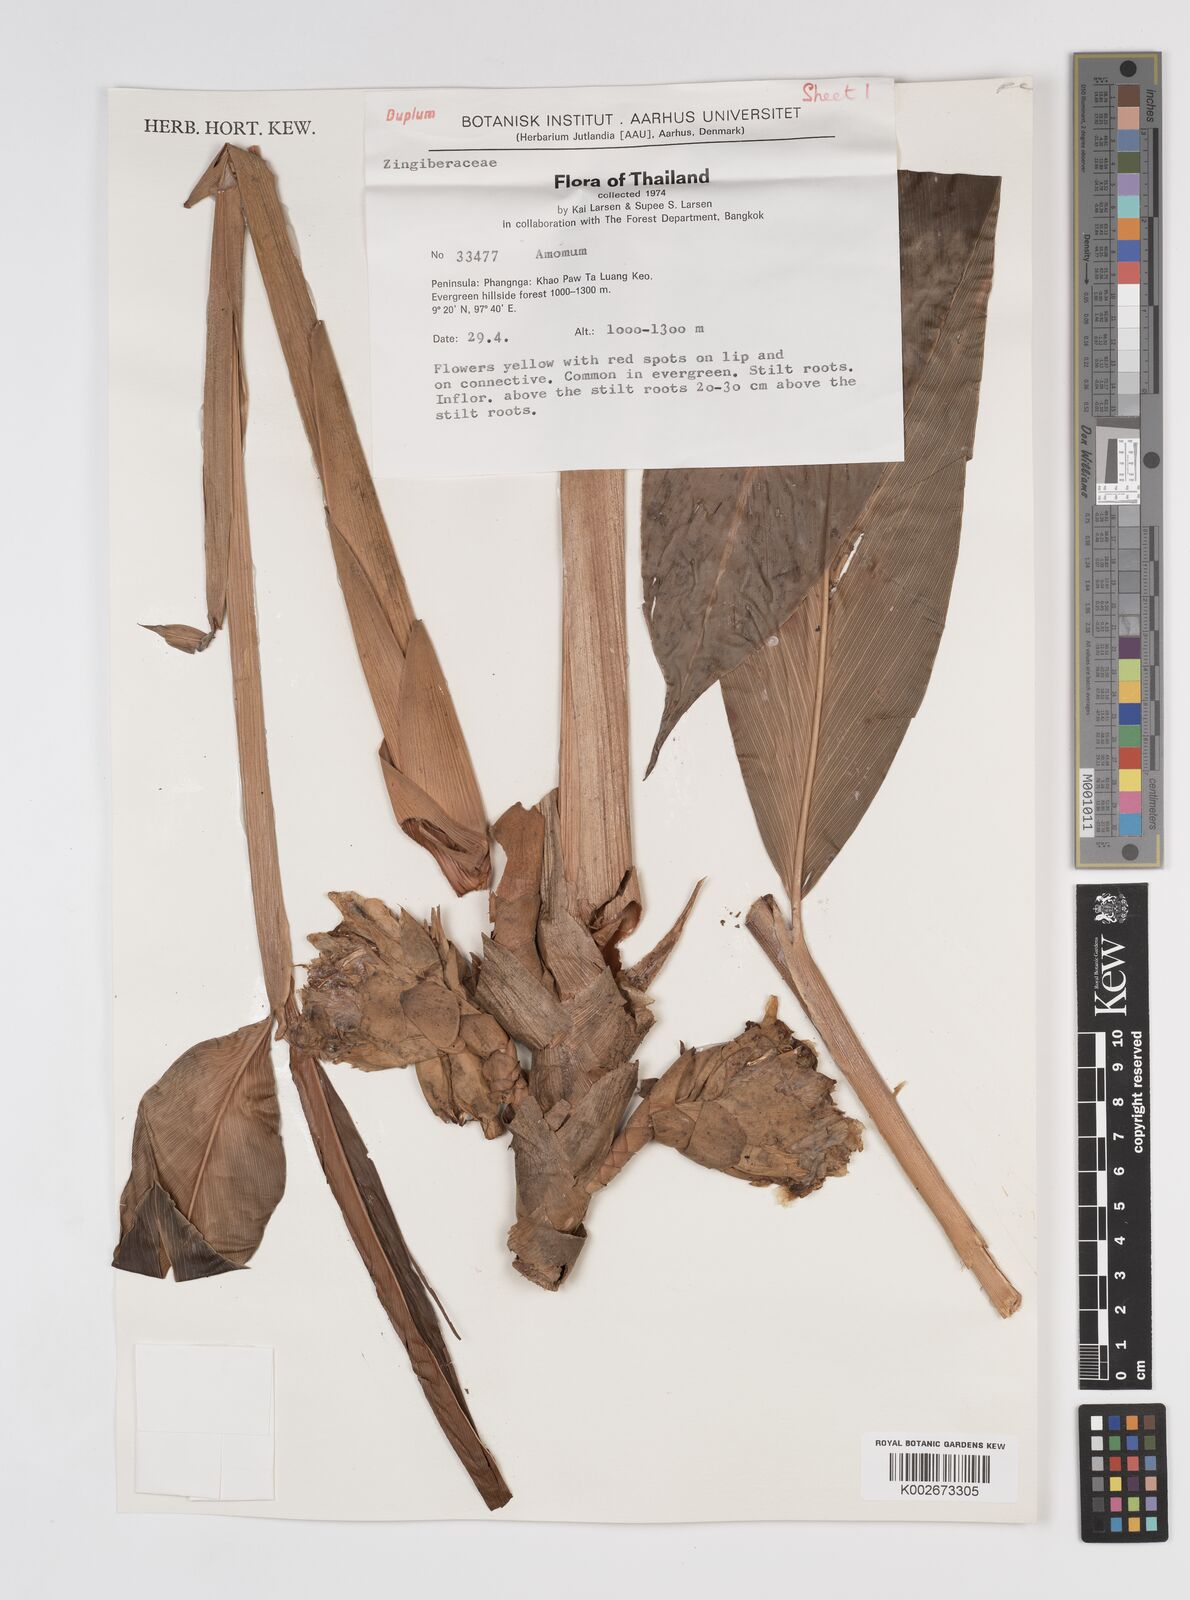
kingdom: Plantae
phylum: Tracheophyta
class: Liliopsida
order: Zingiberales
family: Zingiberaceae
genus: Amomum
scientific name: Amomum
